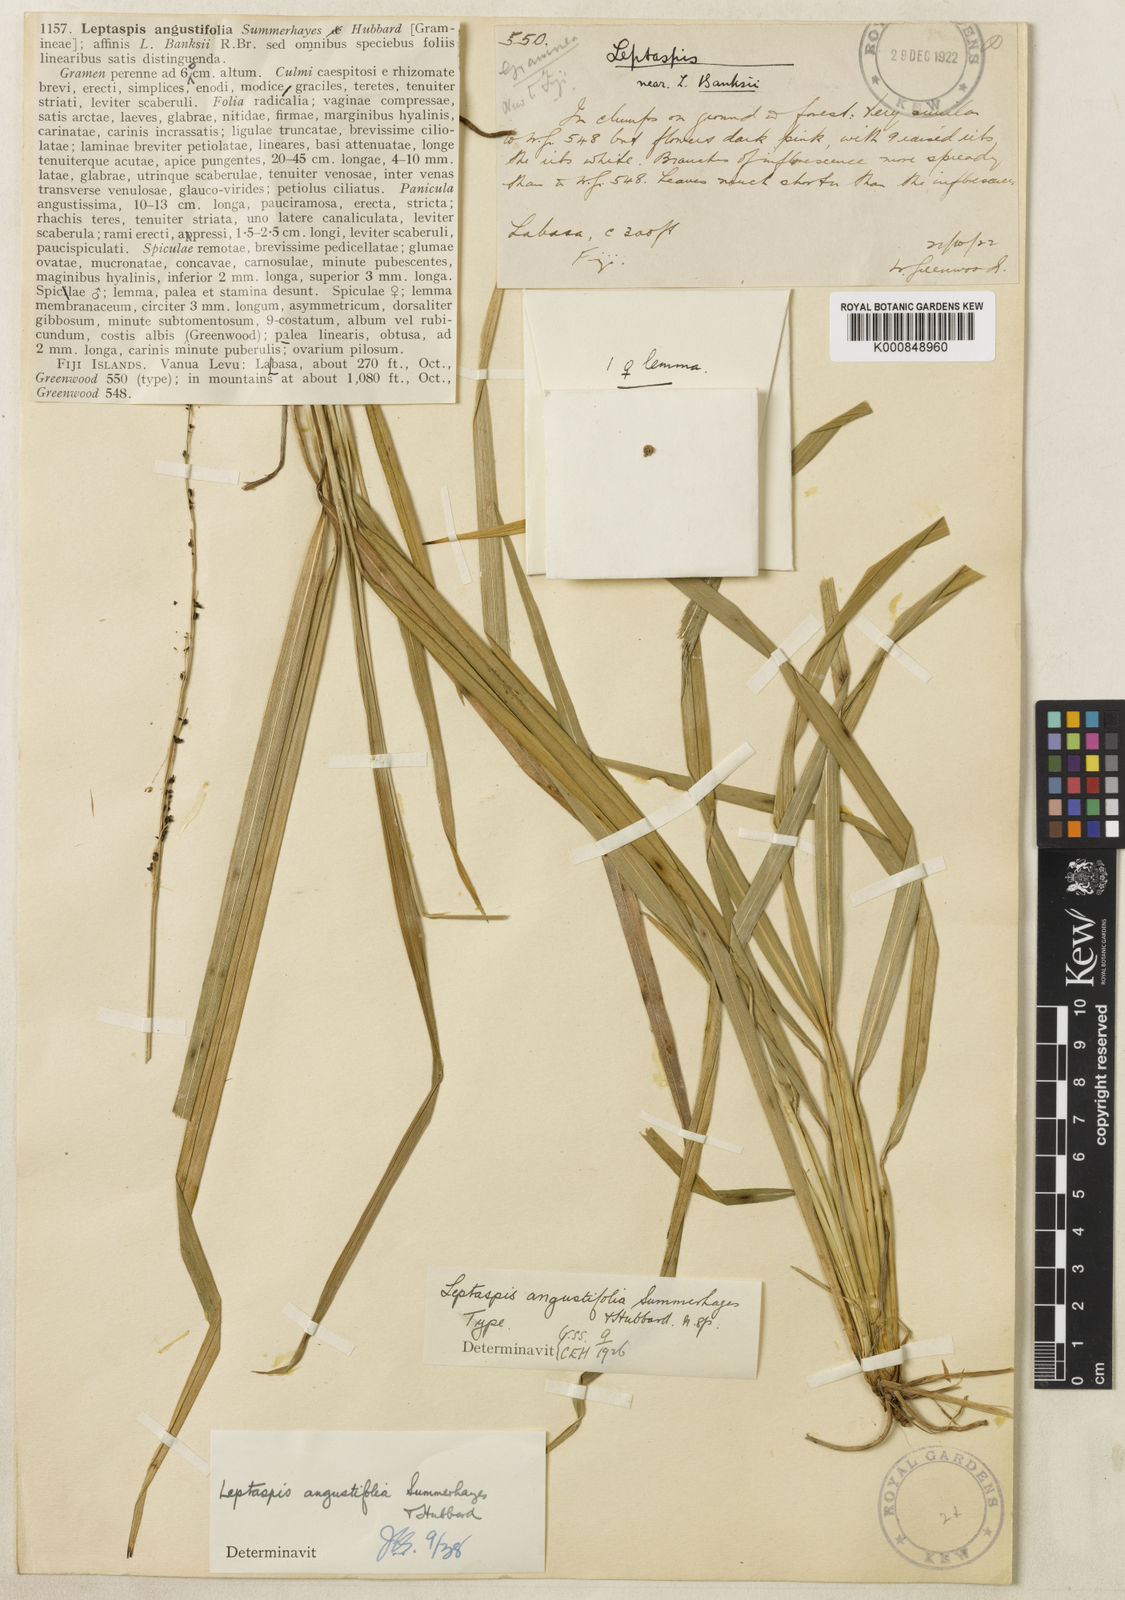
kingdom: Plantae
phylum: Tracheophyta
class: Liliopsida
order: Poales
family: Poaceae
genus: Leptaspis
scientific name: Leptaspis angustifolia
